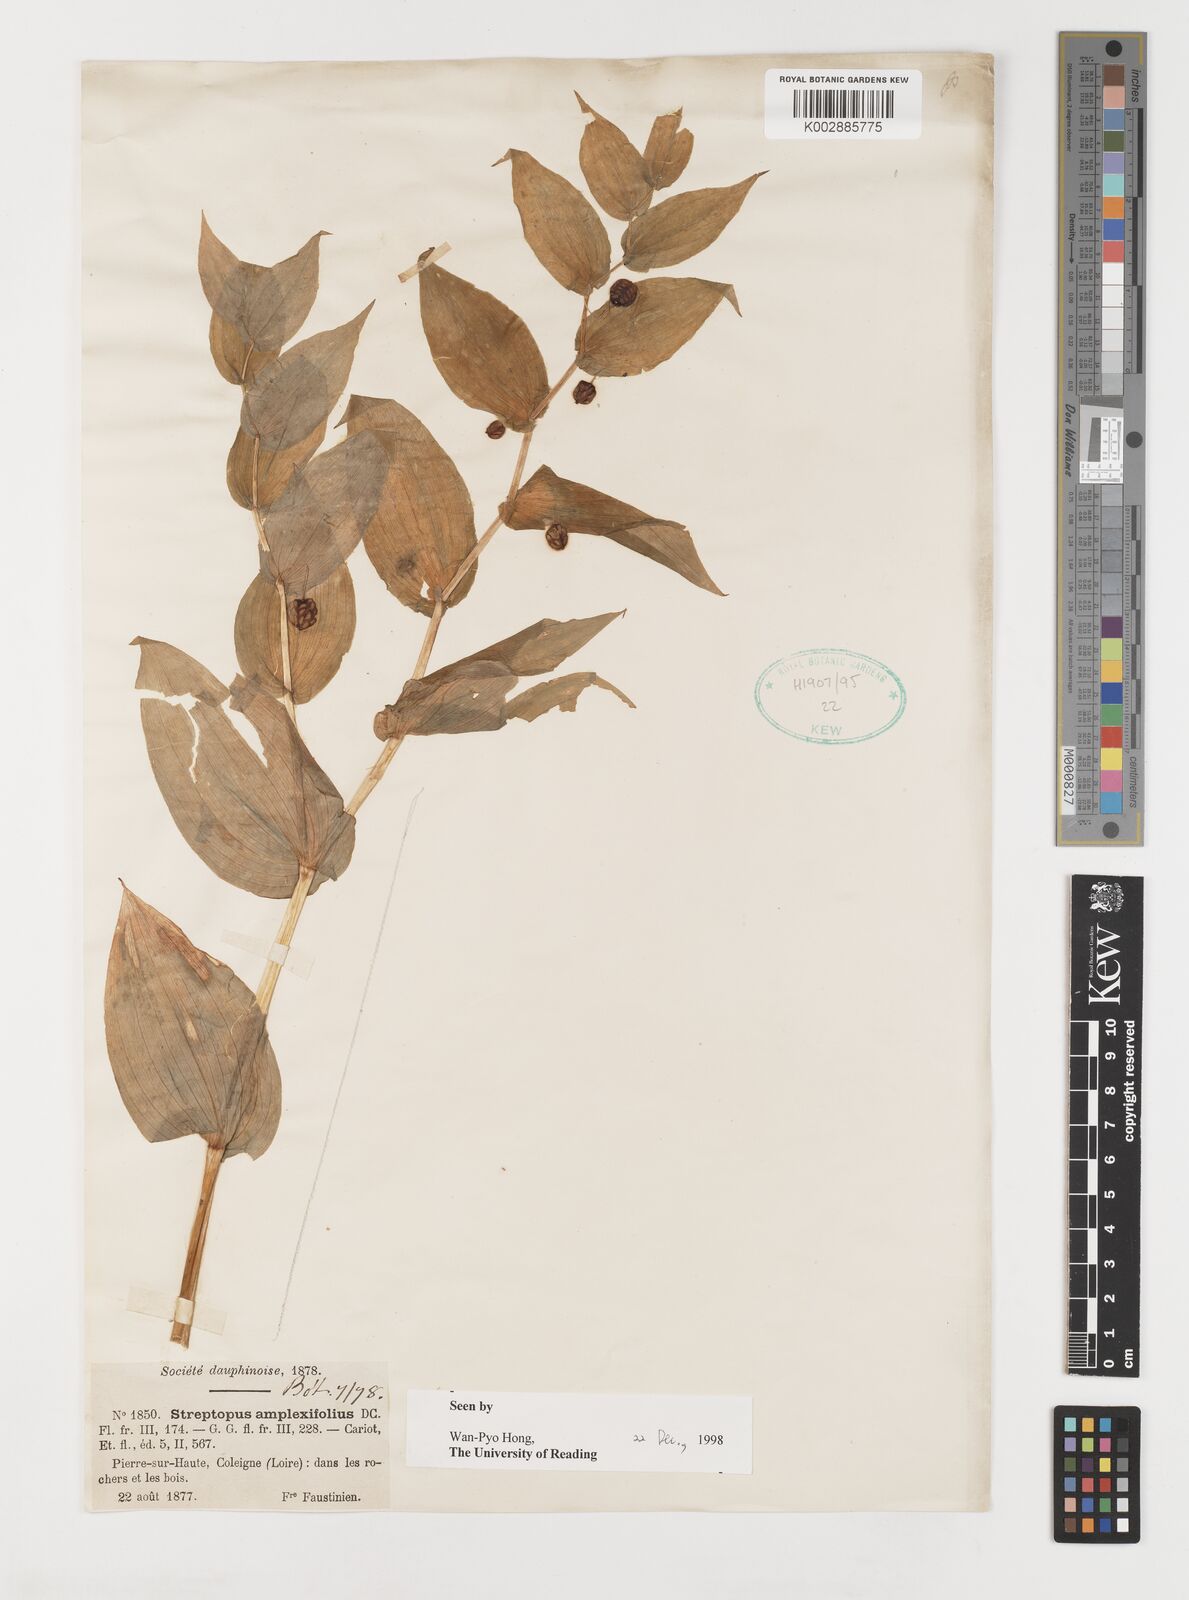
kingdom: Plantae
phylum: Tracheophyta
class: Liliopsida
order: Liliales
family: Liliaceae
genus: Streptopus
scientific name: Streptopus amplexifolius
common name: Clasp twisted stalk
